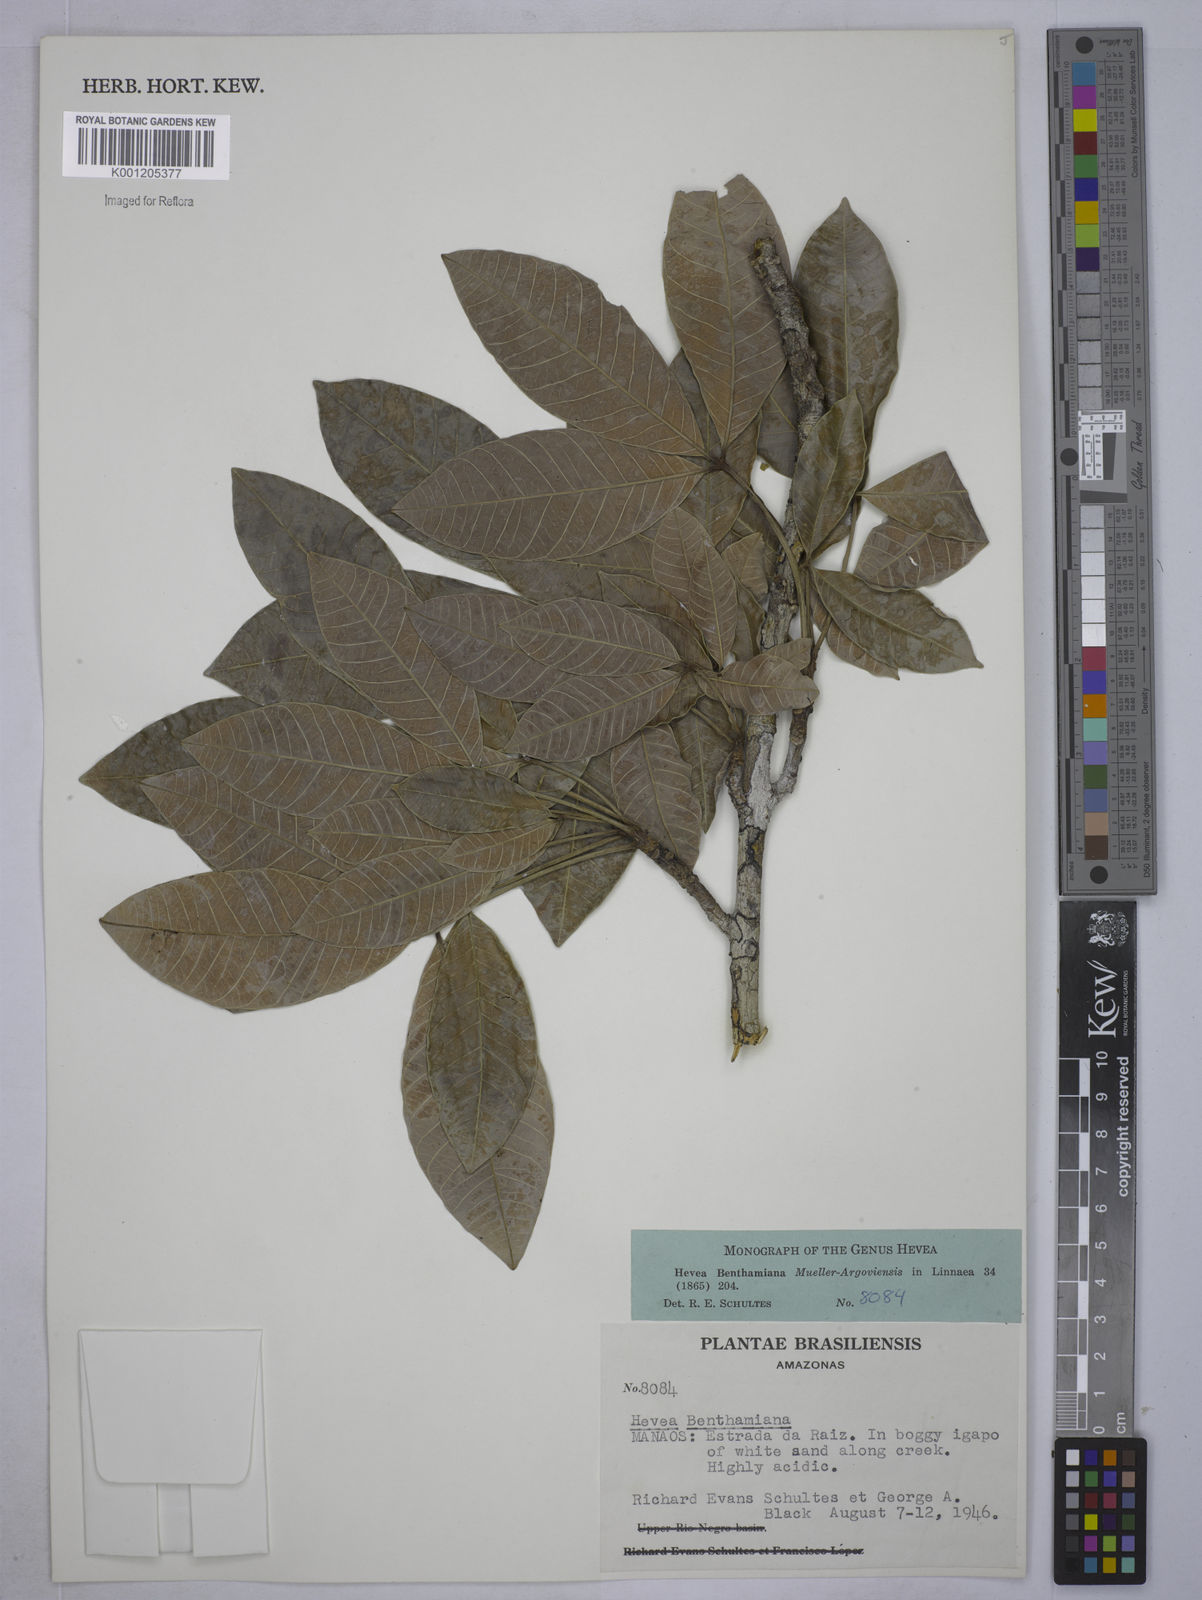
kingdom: Plantae
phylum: Tracheophyta
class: Magnoliopsida
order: Malpighiales
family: Euphorbiaceae
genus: Hevea
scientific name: Hevea
